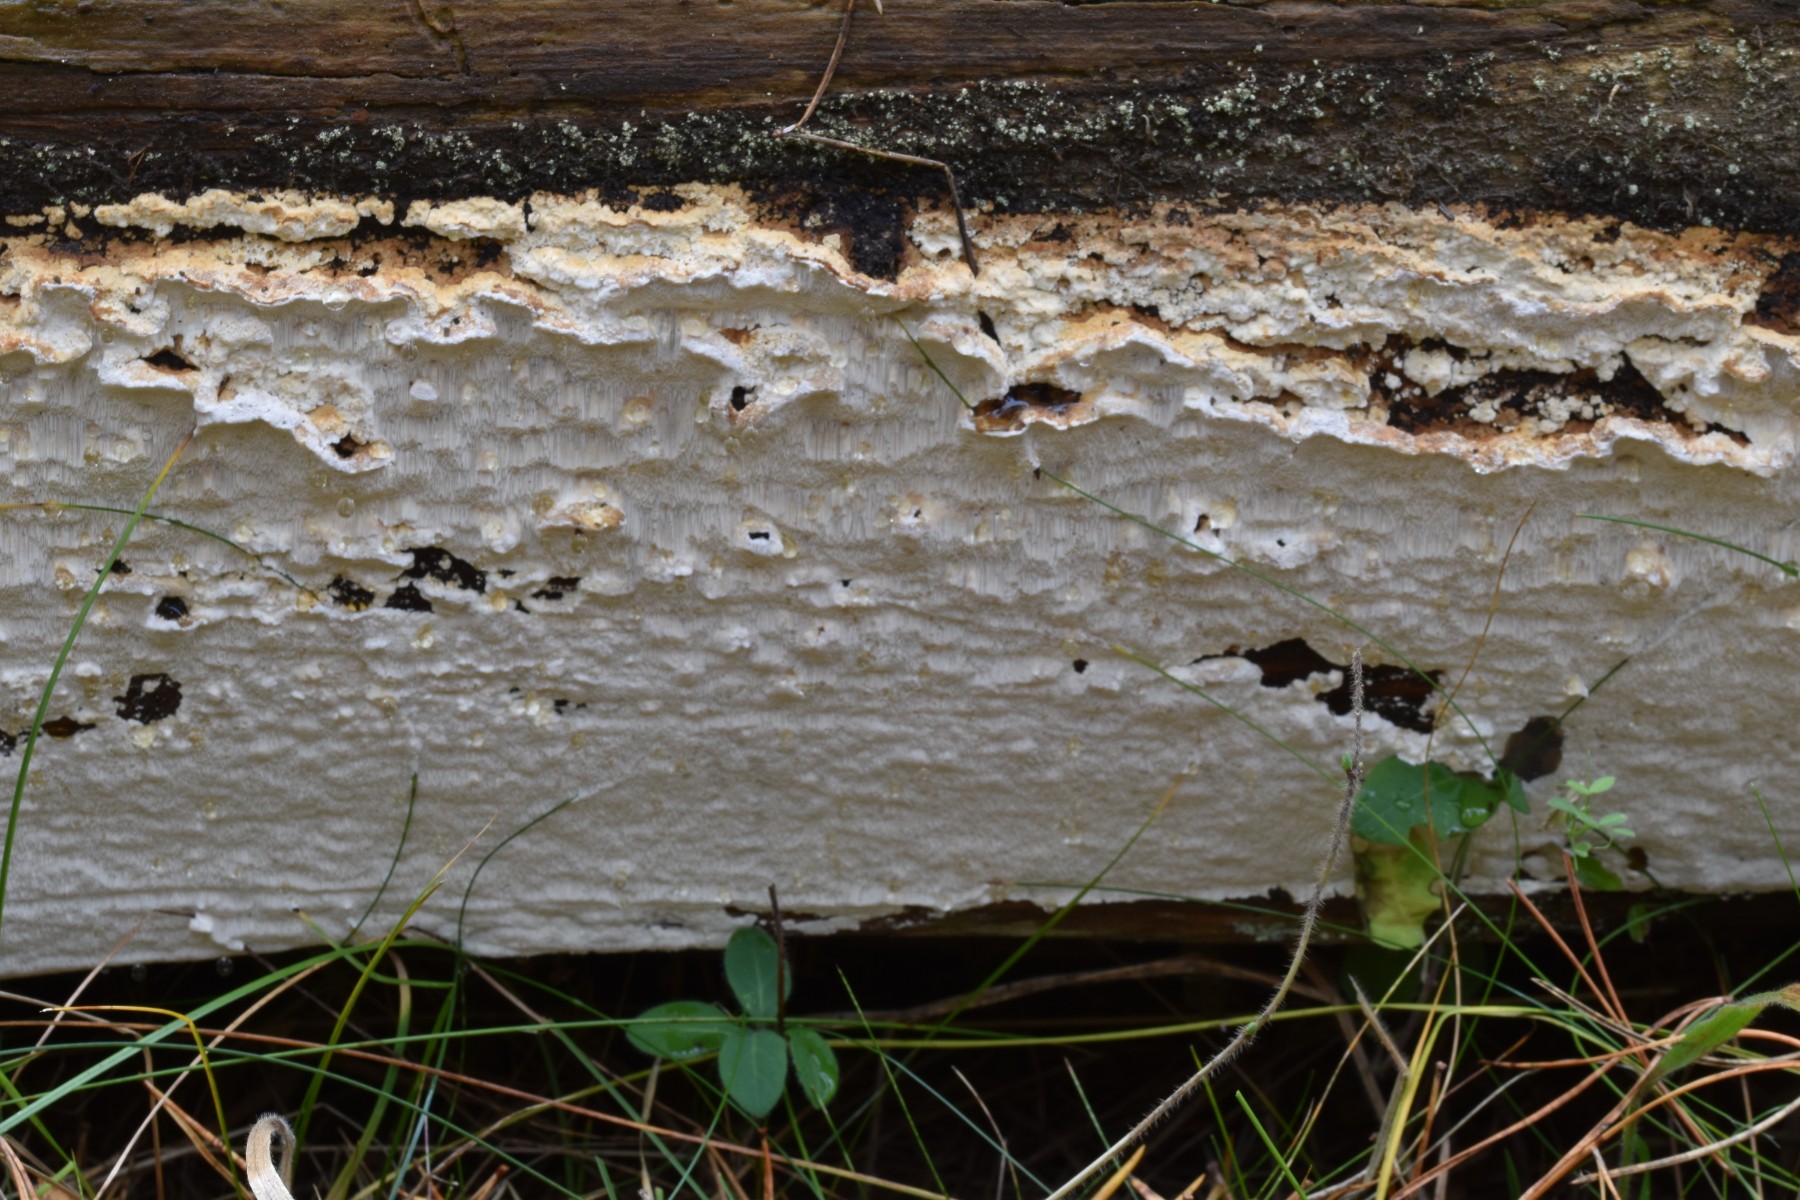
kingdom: Fungi
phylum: Basidiomycota
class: Agaricomycetes
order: Polyporales
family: Fomitopsidaceae
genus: Neoantrodia
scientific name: Neoantrodia serialis
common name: række-sejporesvamp
